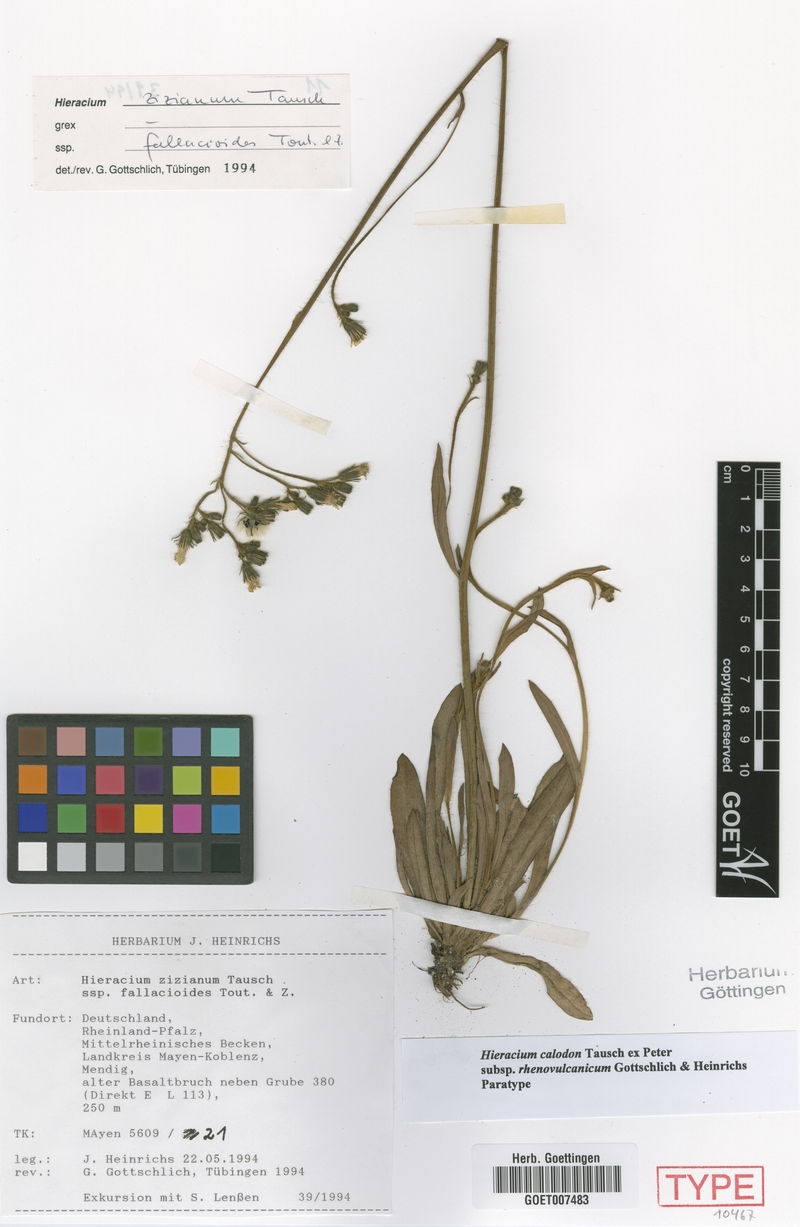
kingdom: Plantae
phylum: Tracheophyta
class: Magnoliopsida
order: Asterales
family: Asteraceae
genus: Pilosella
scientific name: Pilosella calodon
